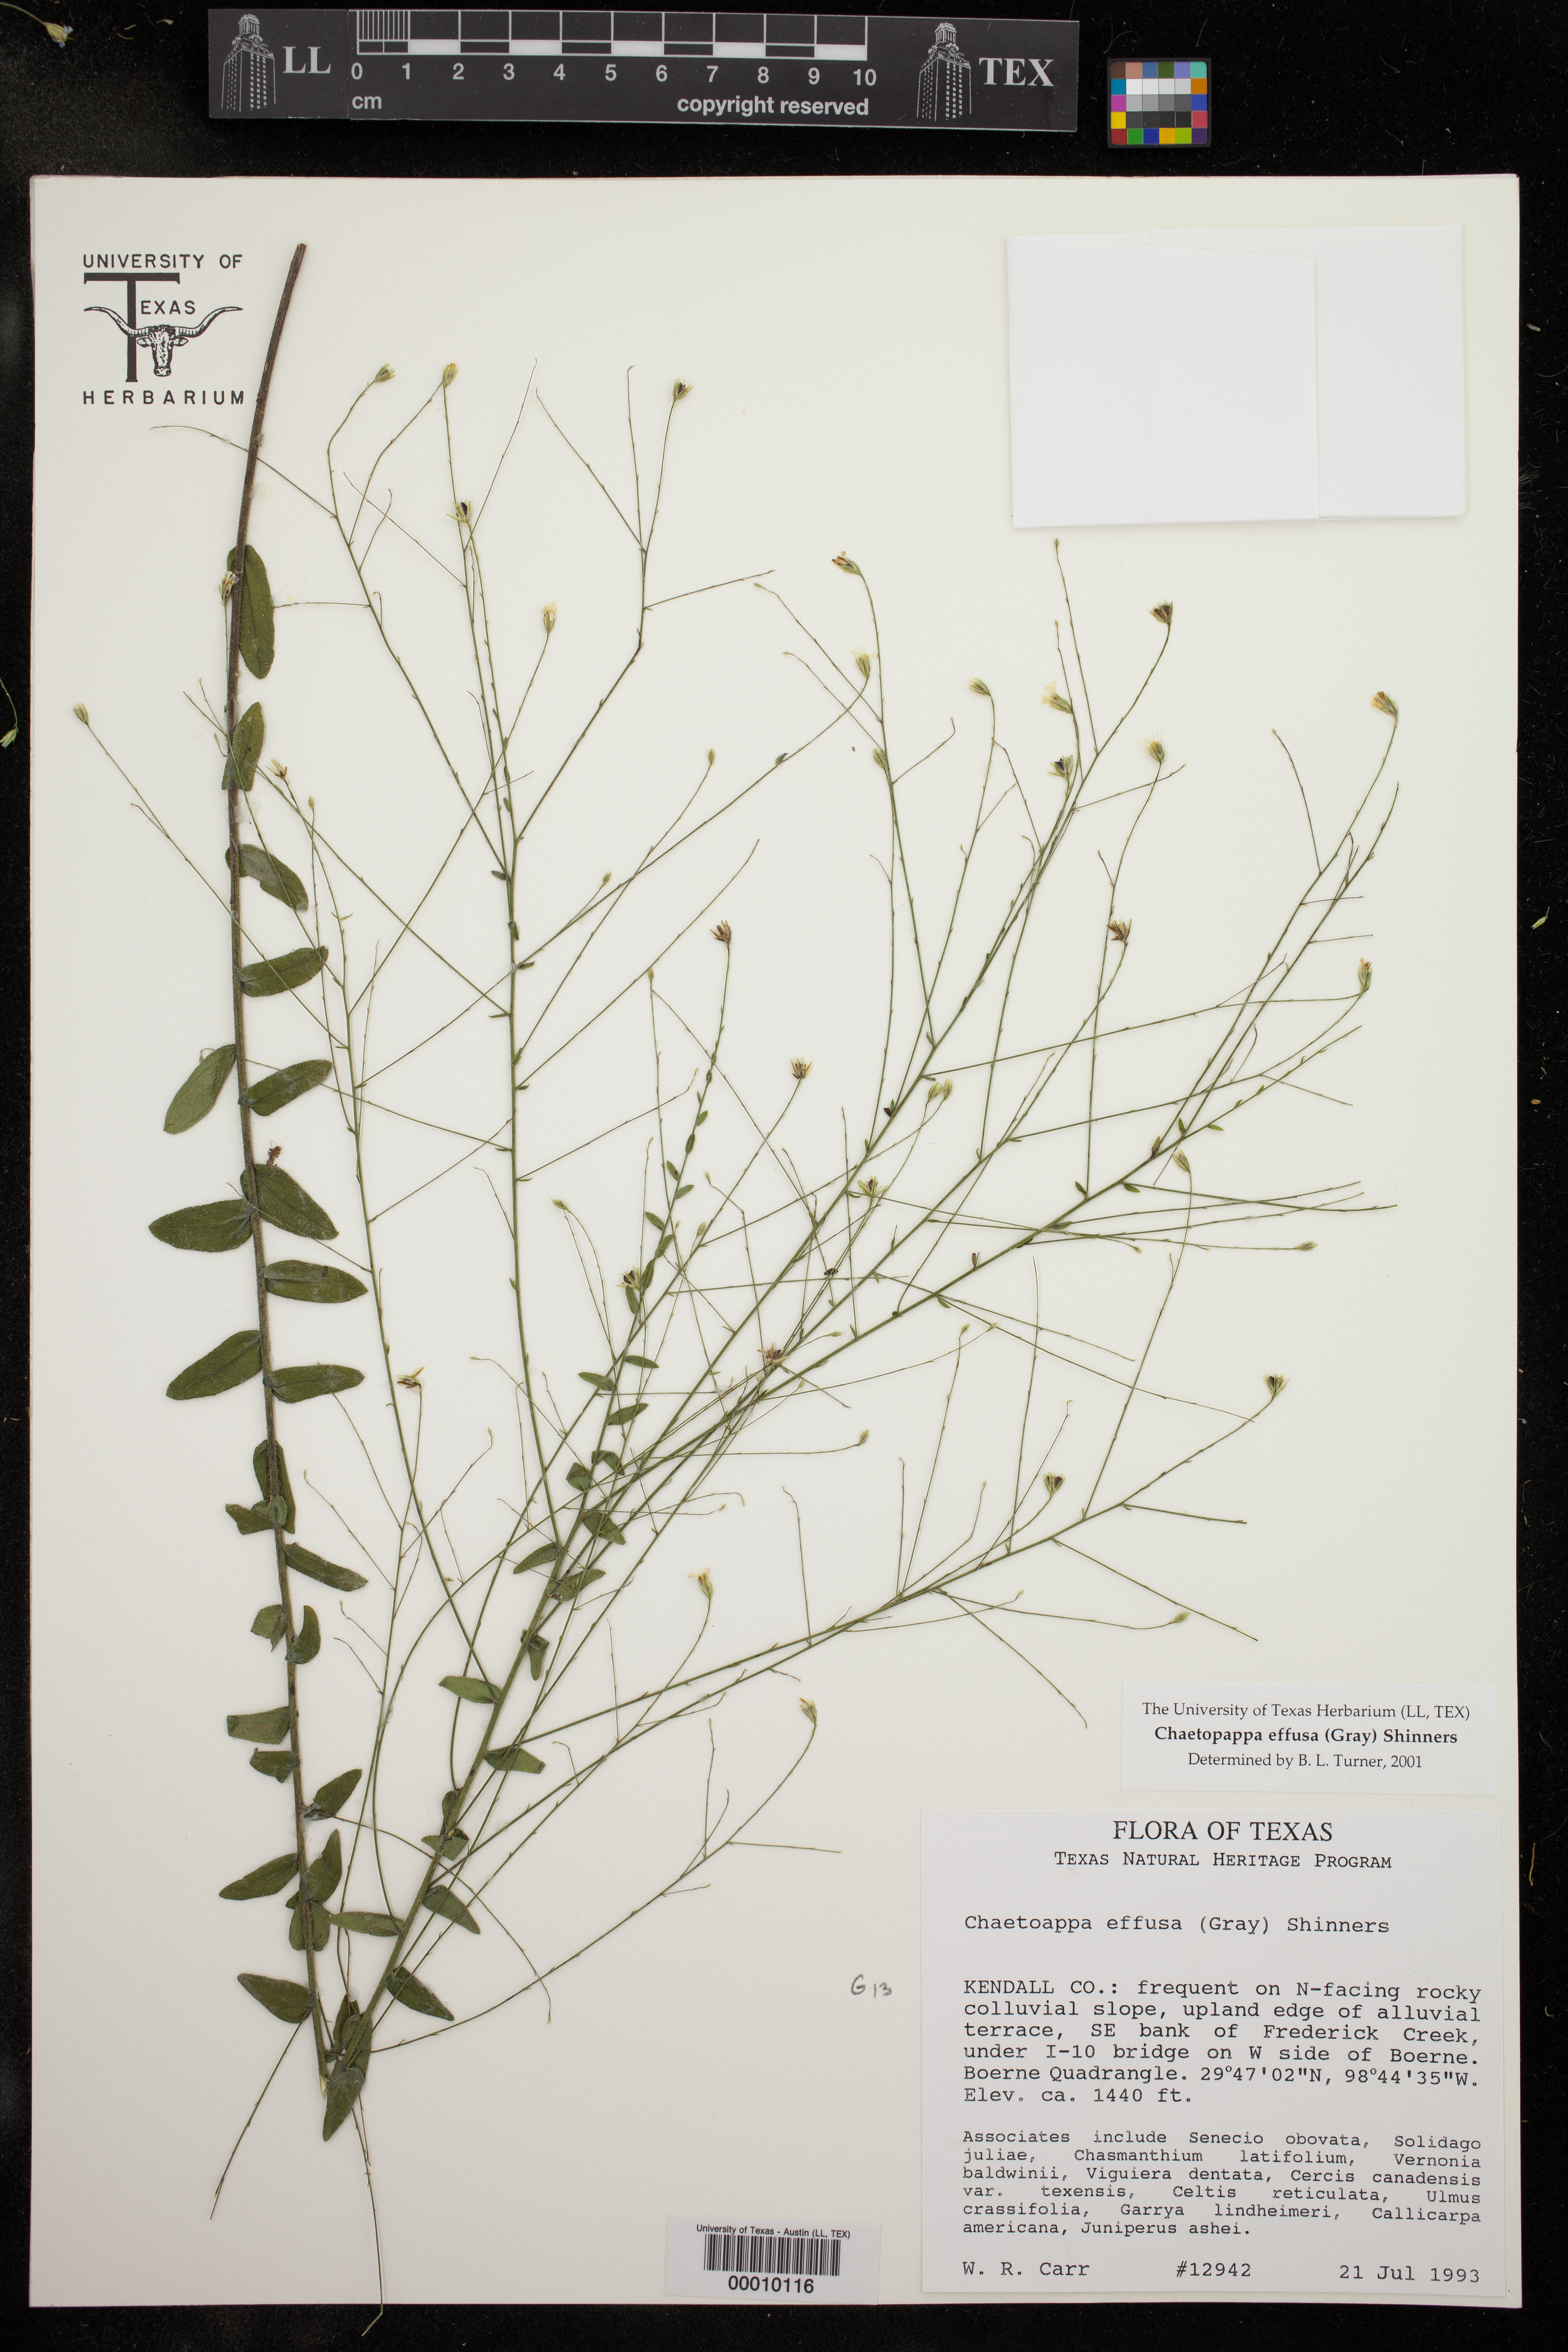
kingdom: Plantae
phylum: Tracheophyta
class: Magnoliopsida
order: Asterales
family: Asteraceae
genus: Chaetopappa
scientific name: Chaetopappa effusa
